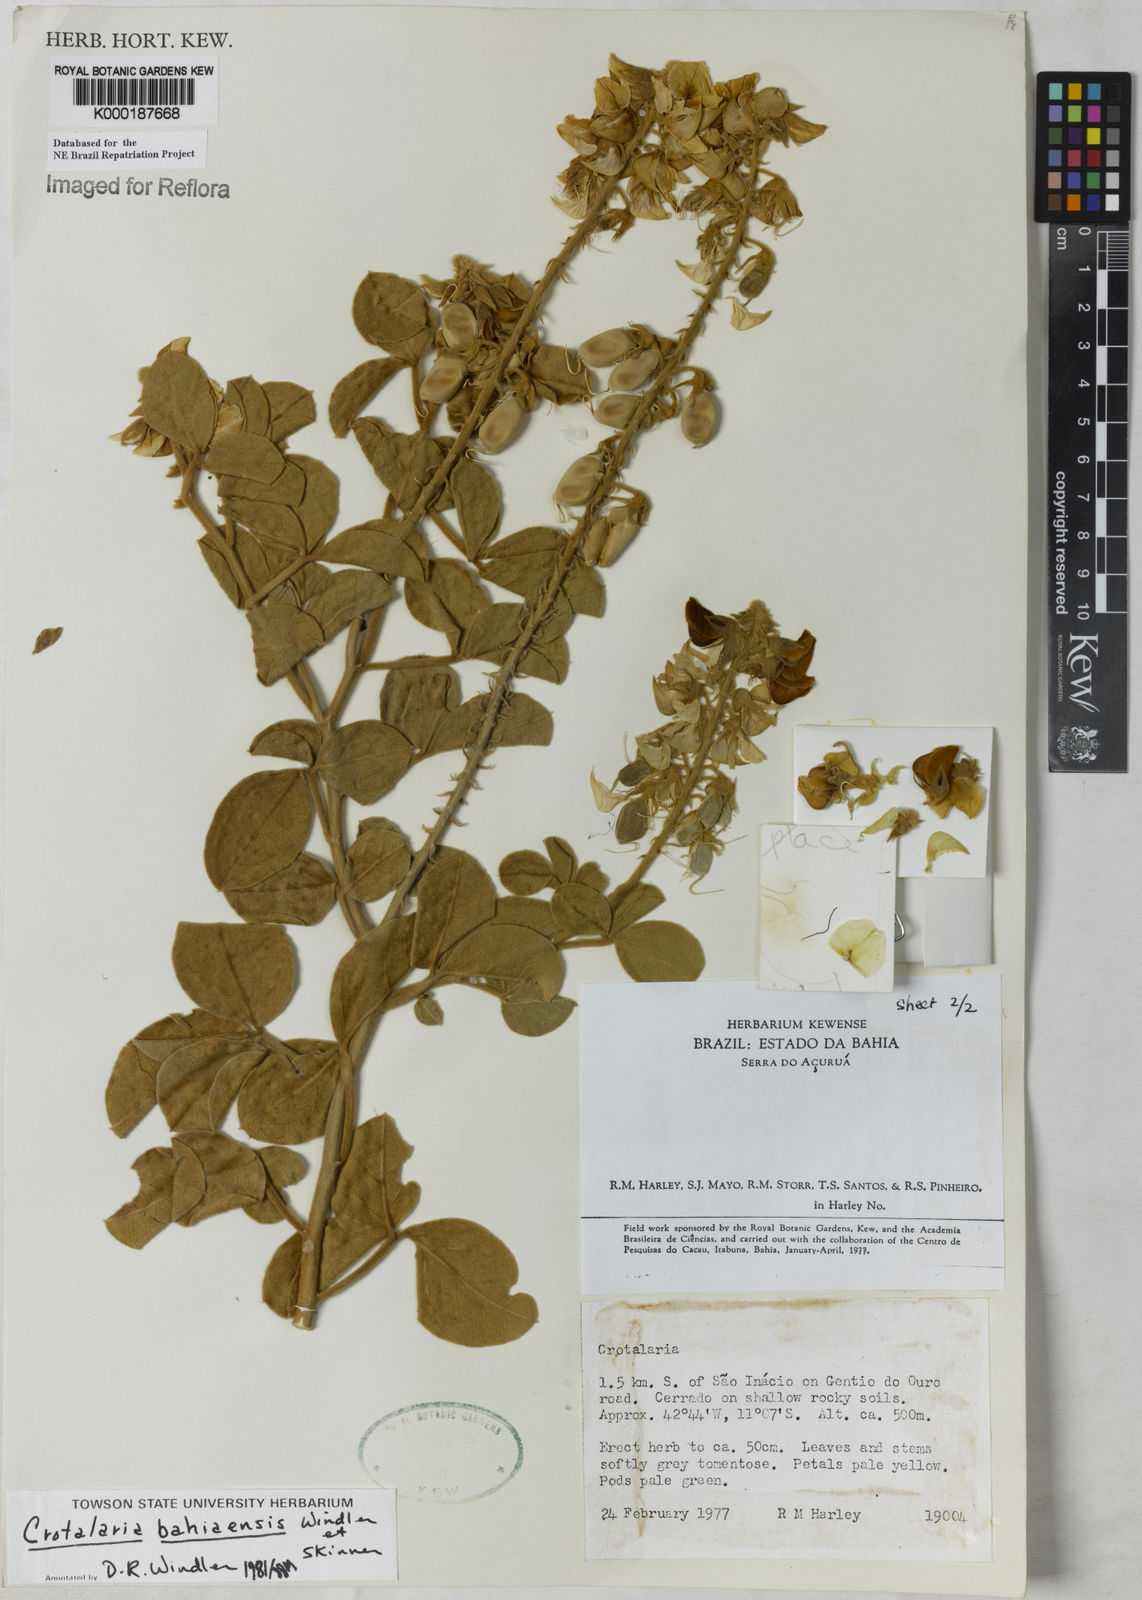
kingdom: Plantae
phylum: Tracheophyta
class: Magnoliopsida
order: Fabales
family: Fabaceae
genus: Crotalaria
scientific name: Crotalaria
